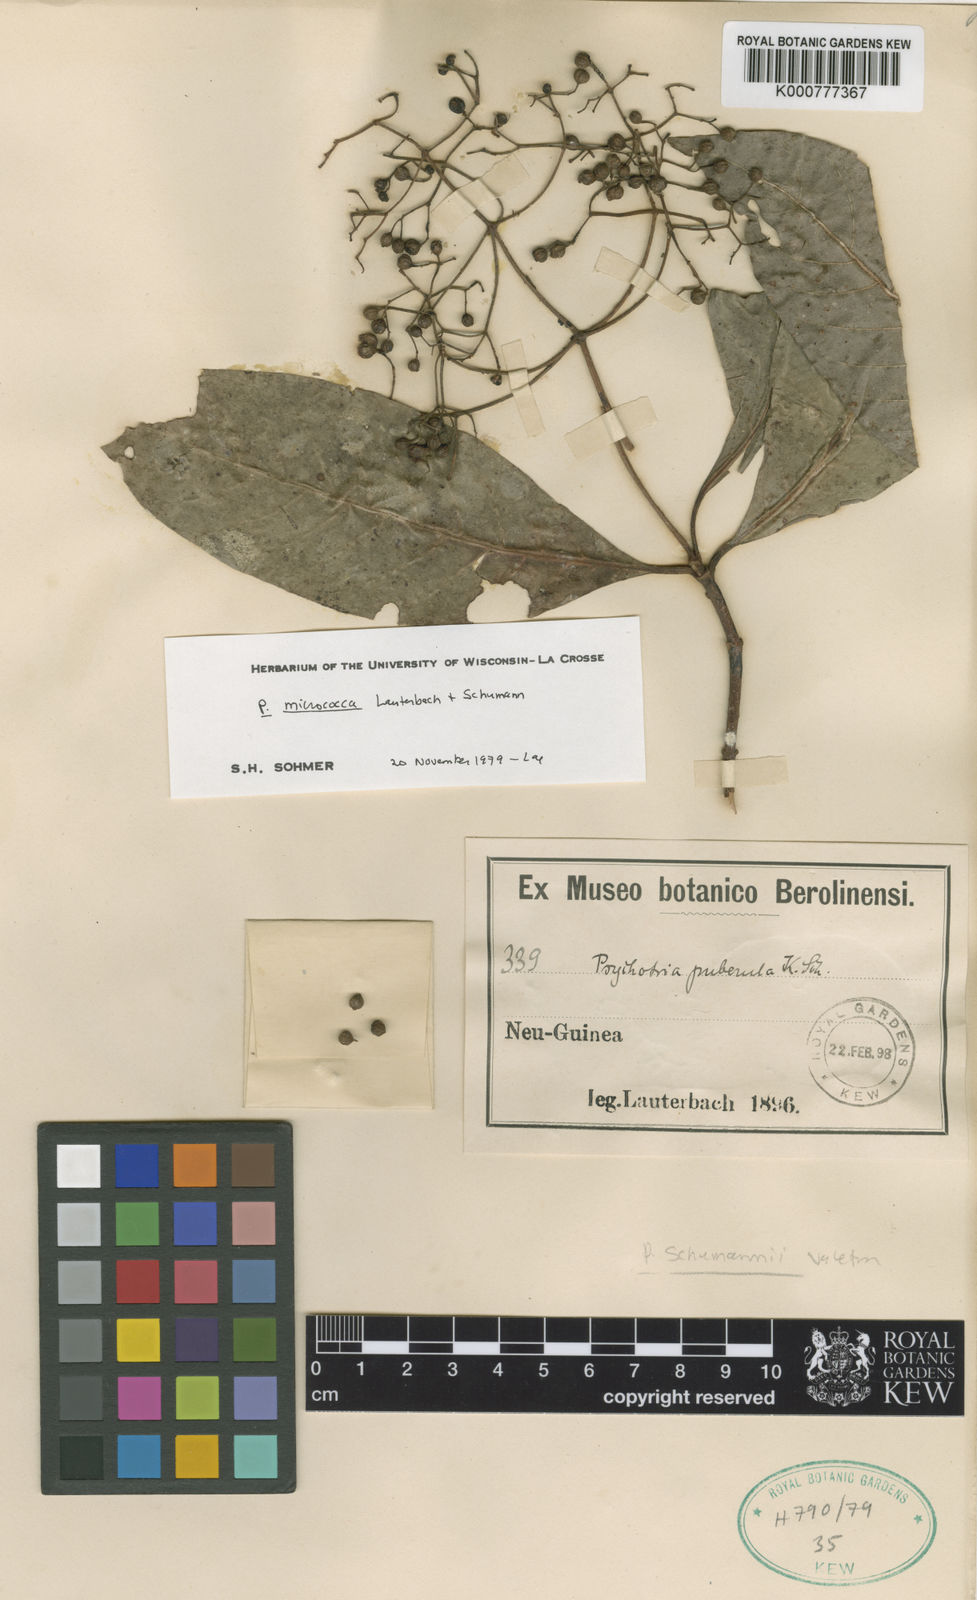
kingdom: Plantae
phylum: Tracheophyta
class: Magnoliopsida
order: Gentianales
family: Rubiaceae
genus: Psychotria
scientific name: Psychotria micrococca
